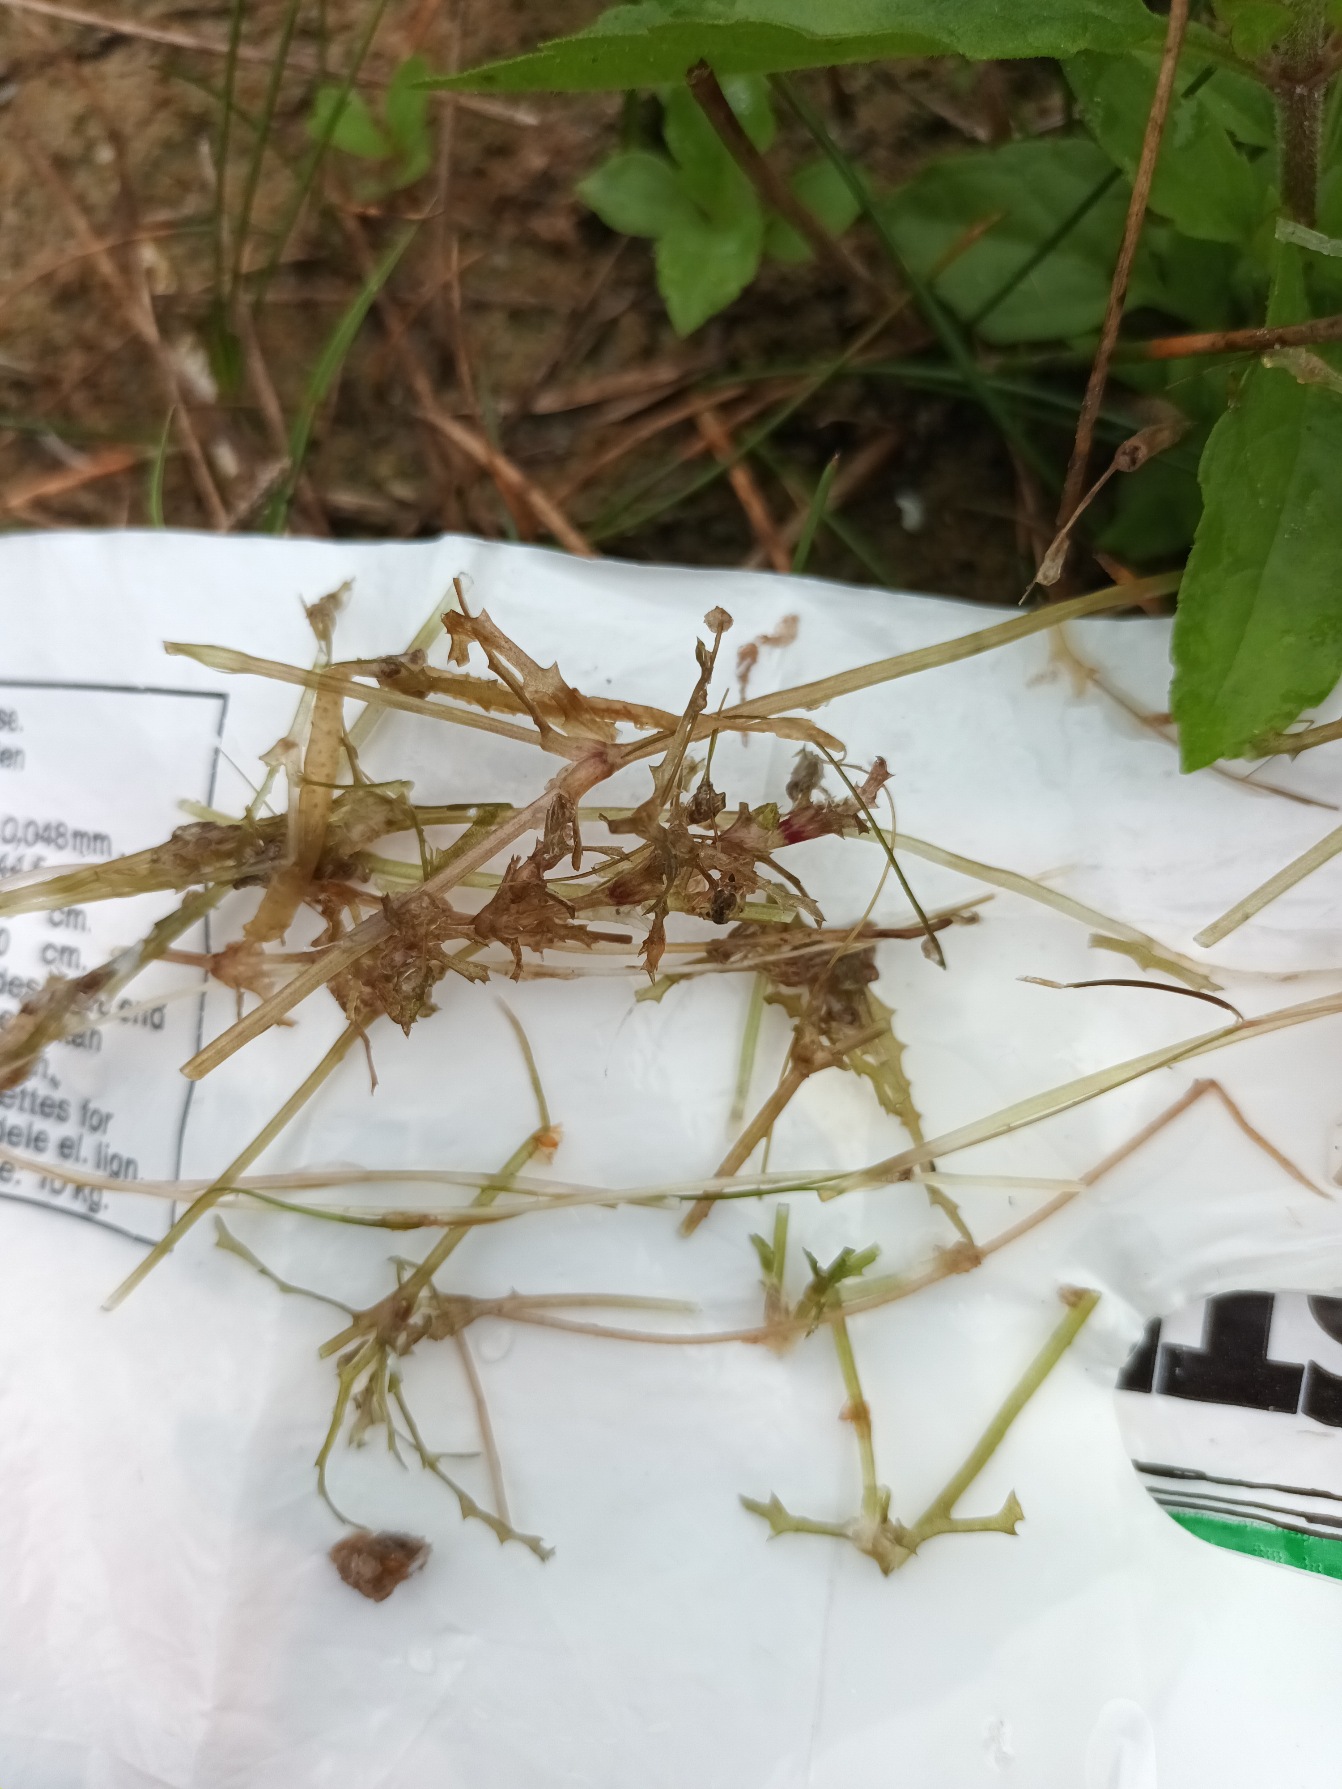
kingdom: Plantae
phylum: Tracheophyta
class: Liliopsida
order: Alismatales
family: Hydrocharitaceae
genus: Najas
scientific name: Najas marina
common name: Stor najade
